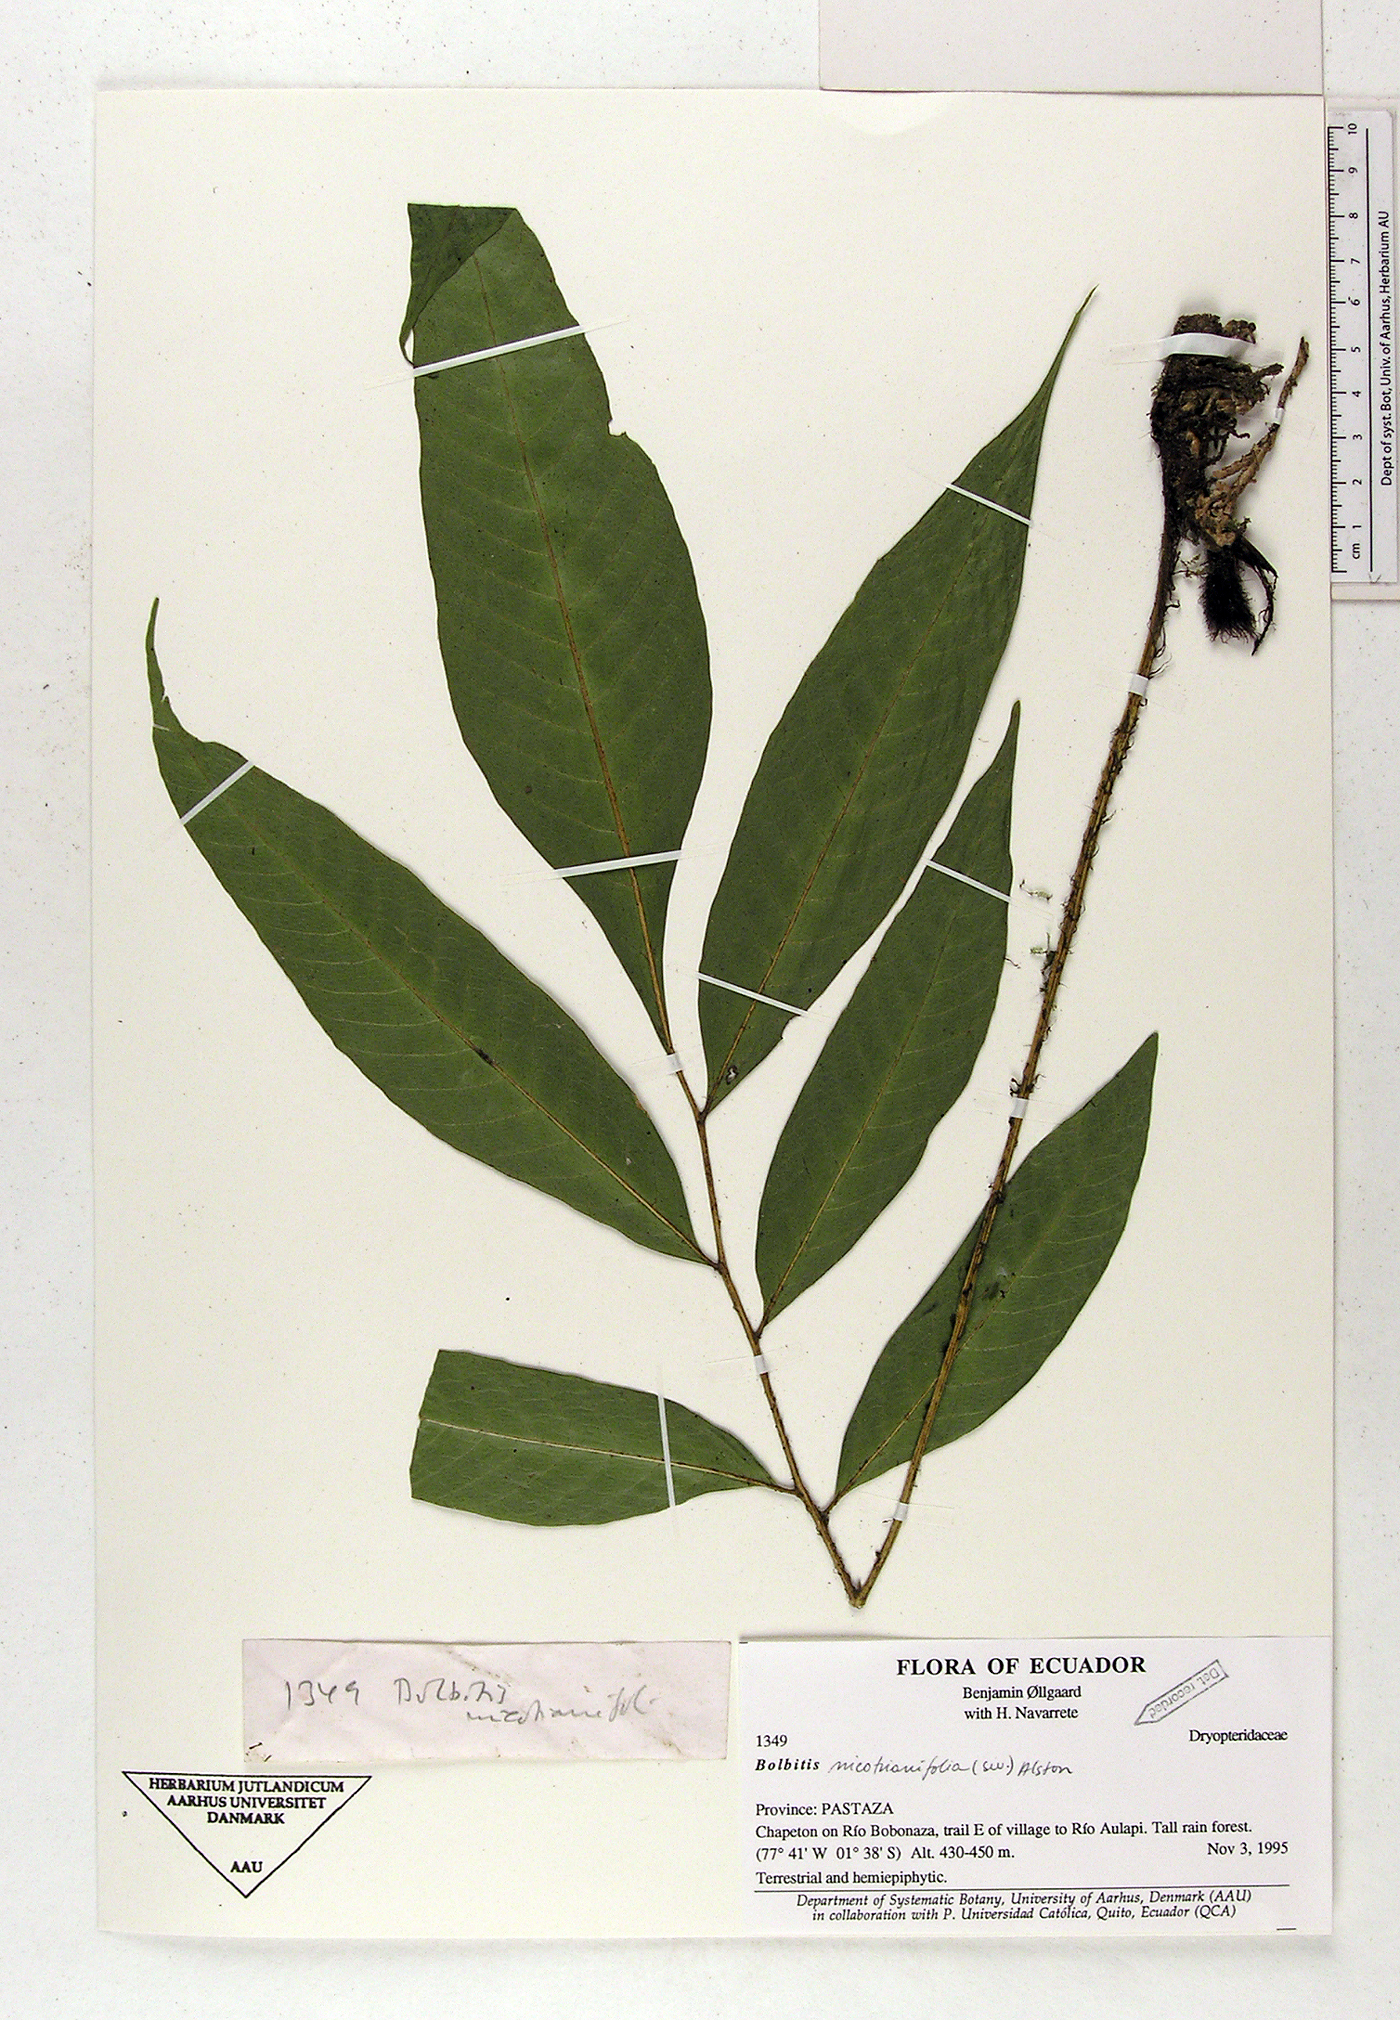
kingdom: Plantae
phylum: Tracheophyta
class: Polypodiopsida
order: Polypodiales
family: Dryopteridaceae
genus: Mickelia
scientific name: Mickelia nicotianifolia
